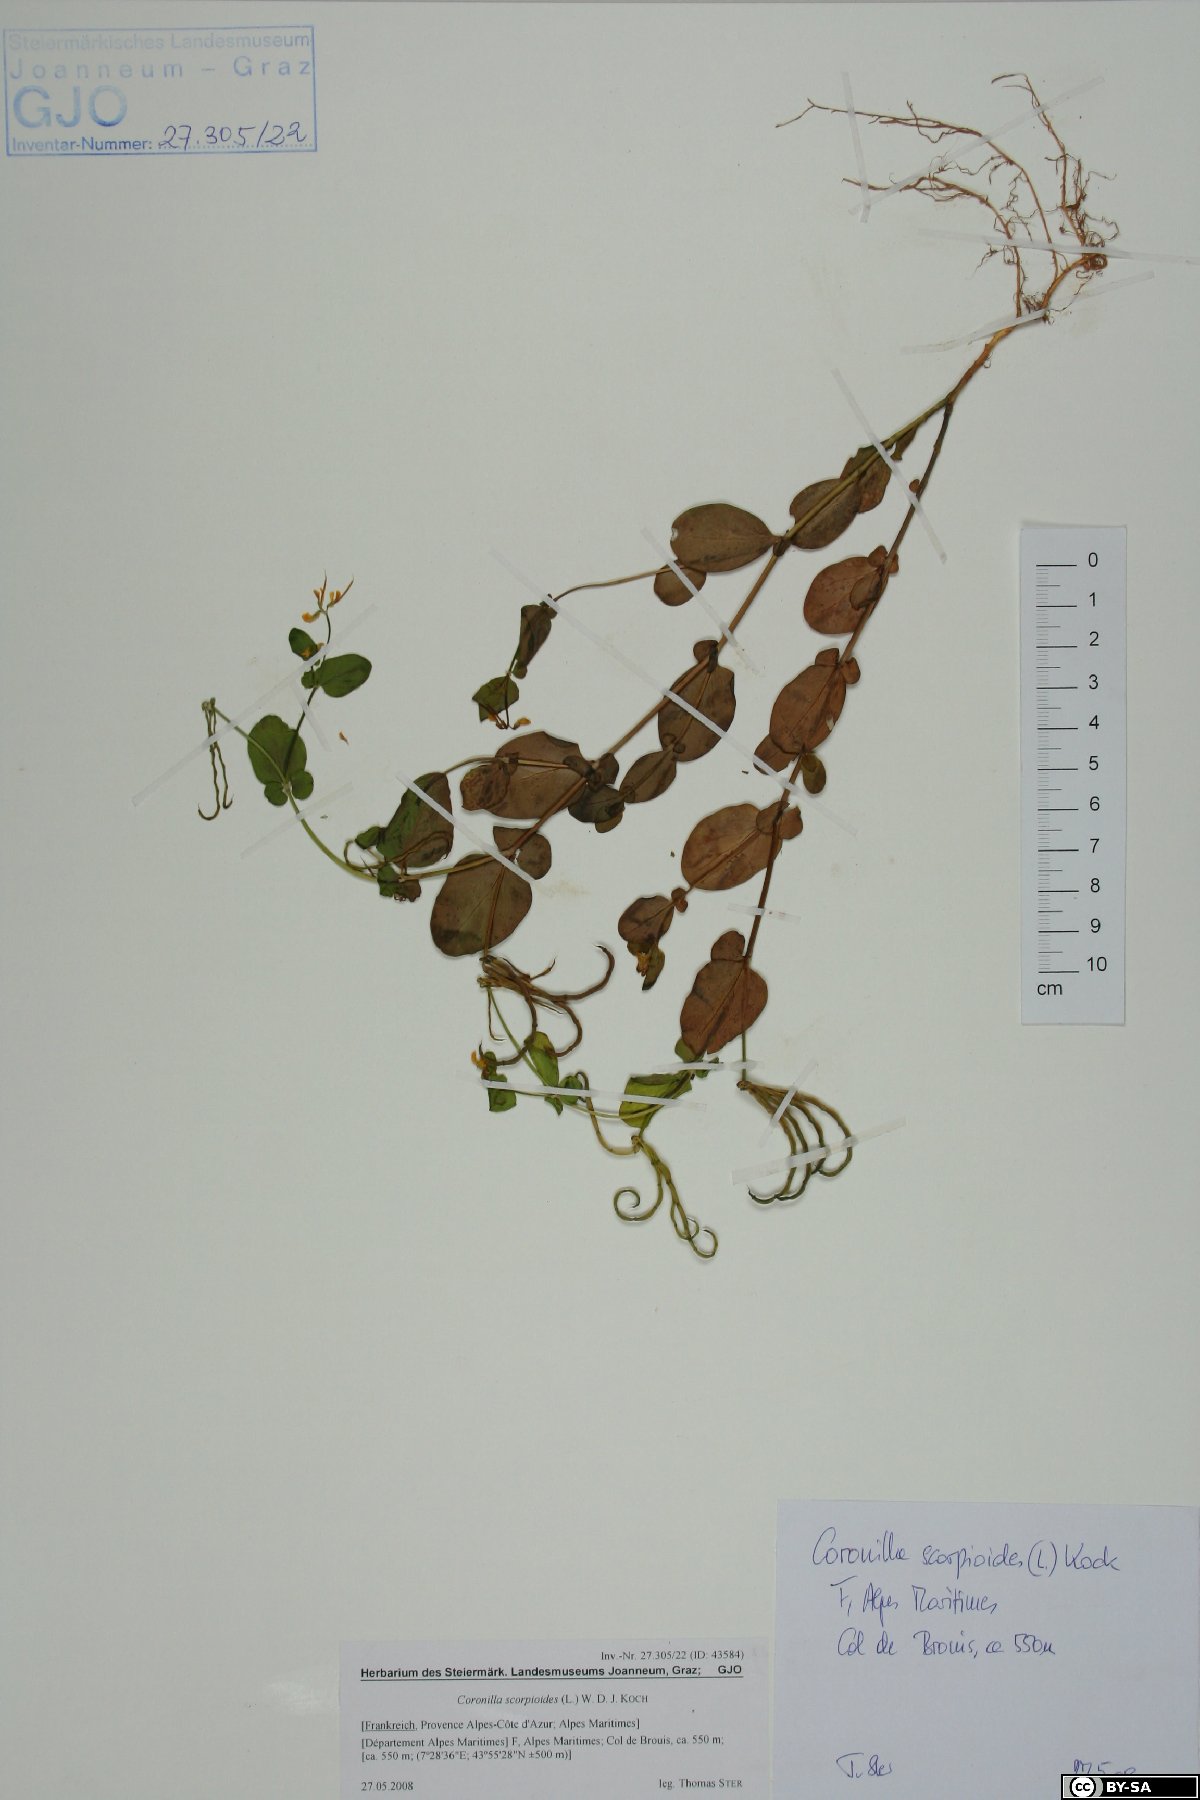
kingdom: Plantae
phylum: Tracheophyta
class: Magnoliopsida
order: Fabales
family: Fabaceae
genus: Coronilla
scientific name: Coronilla scorpioides
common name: Annual scorpion-vetch
